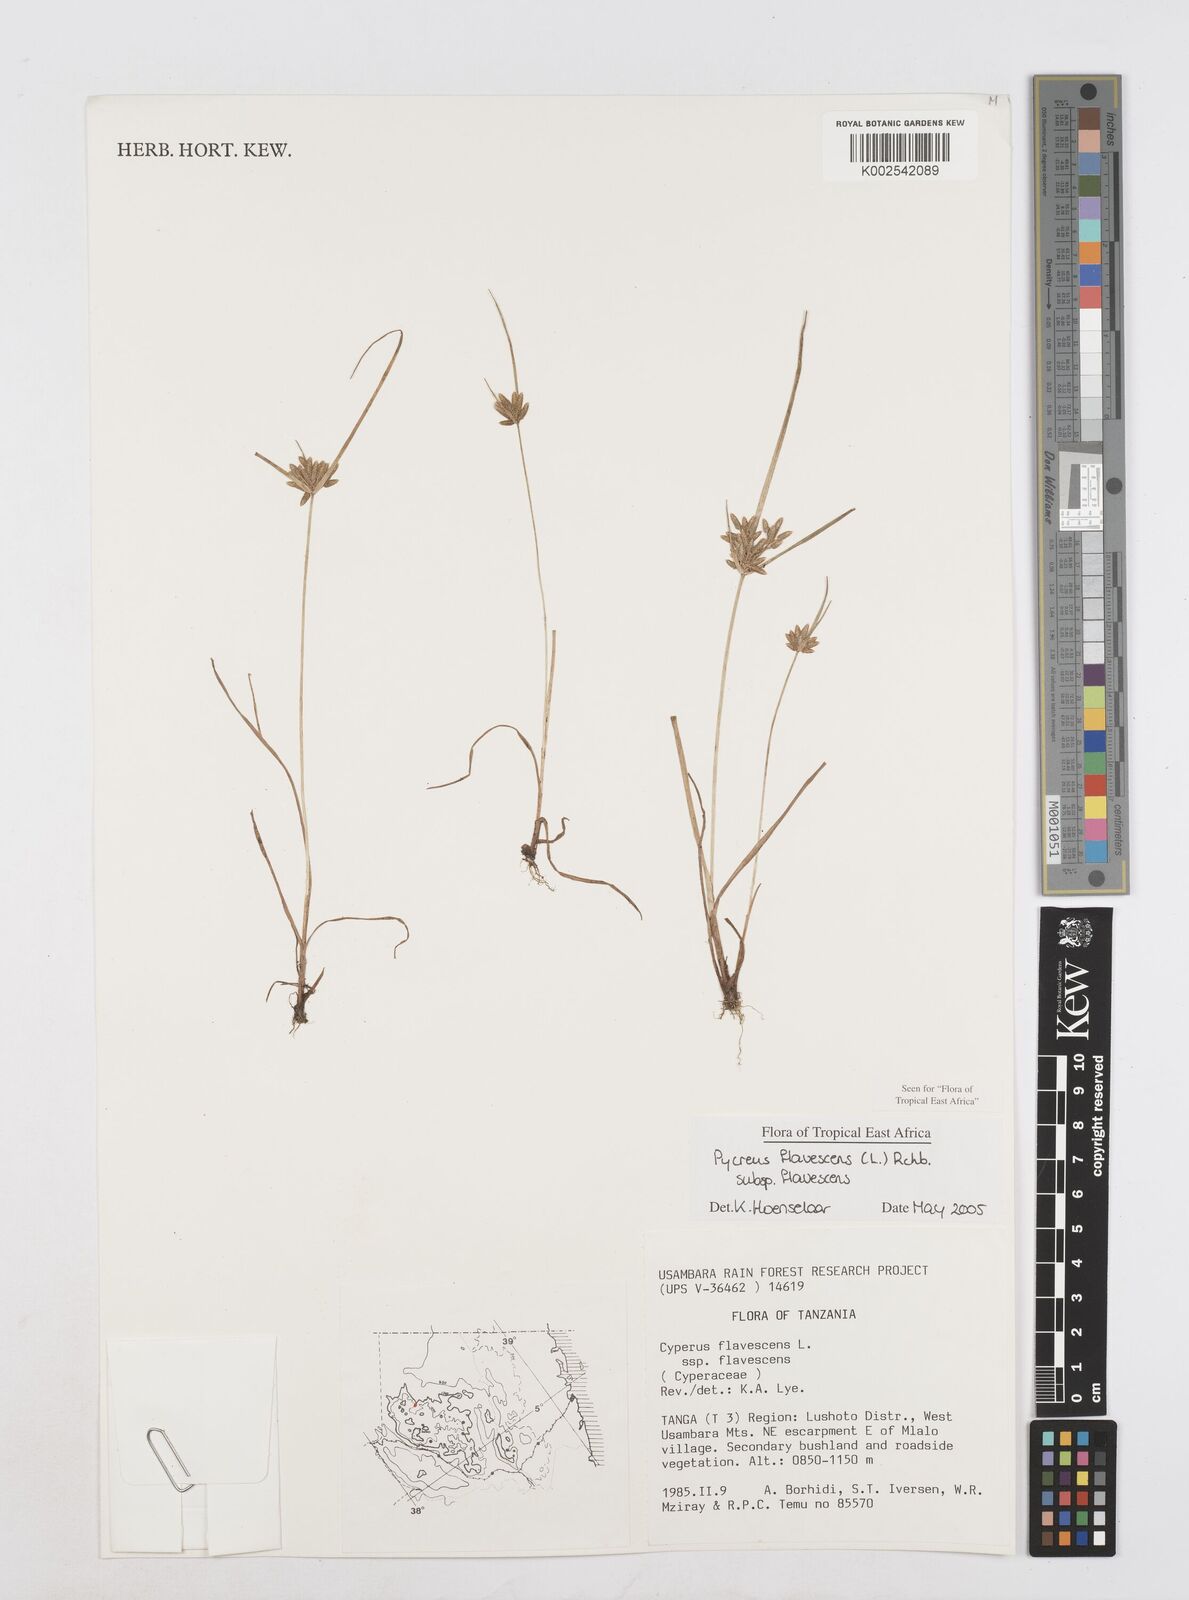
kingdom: Plantae
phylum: Tracheophyta
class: Liliopsida
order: Poales
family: Cyperaceae
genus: Cyperus
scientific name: Cyperus flavescens
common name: Yellow galingale
